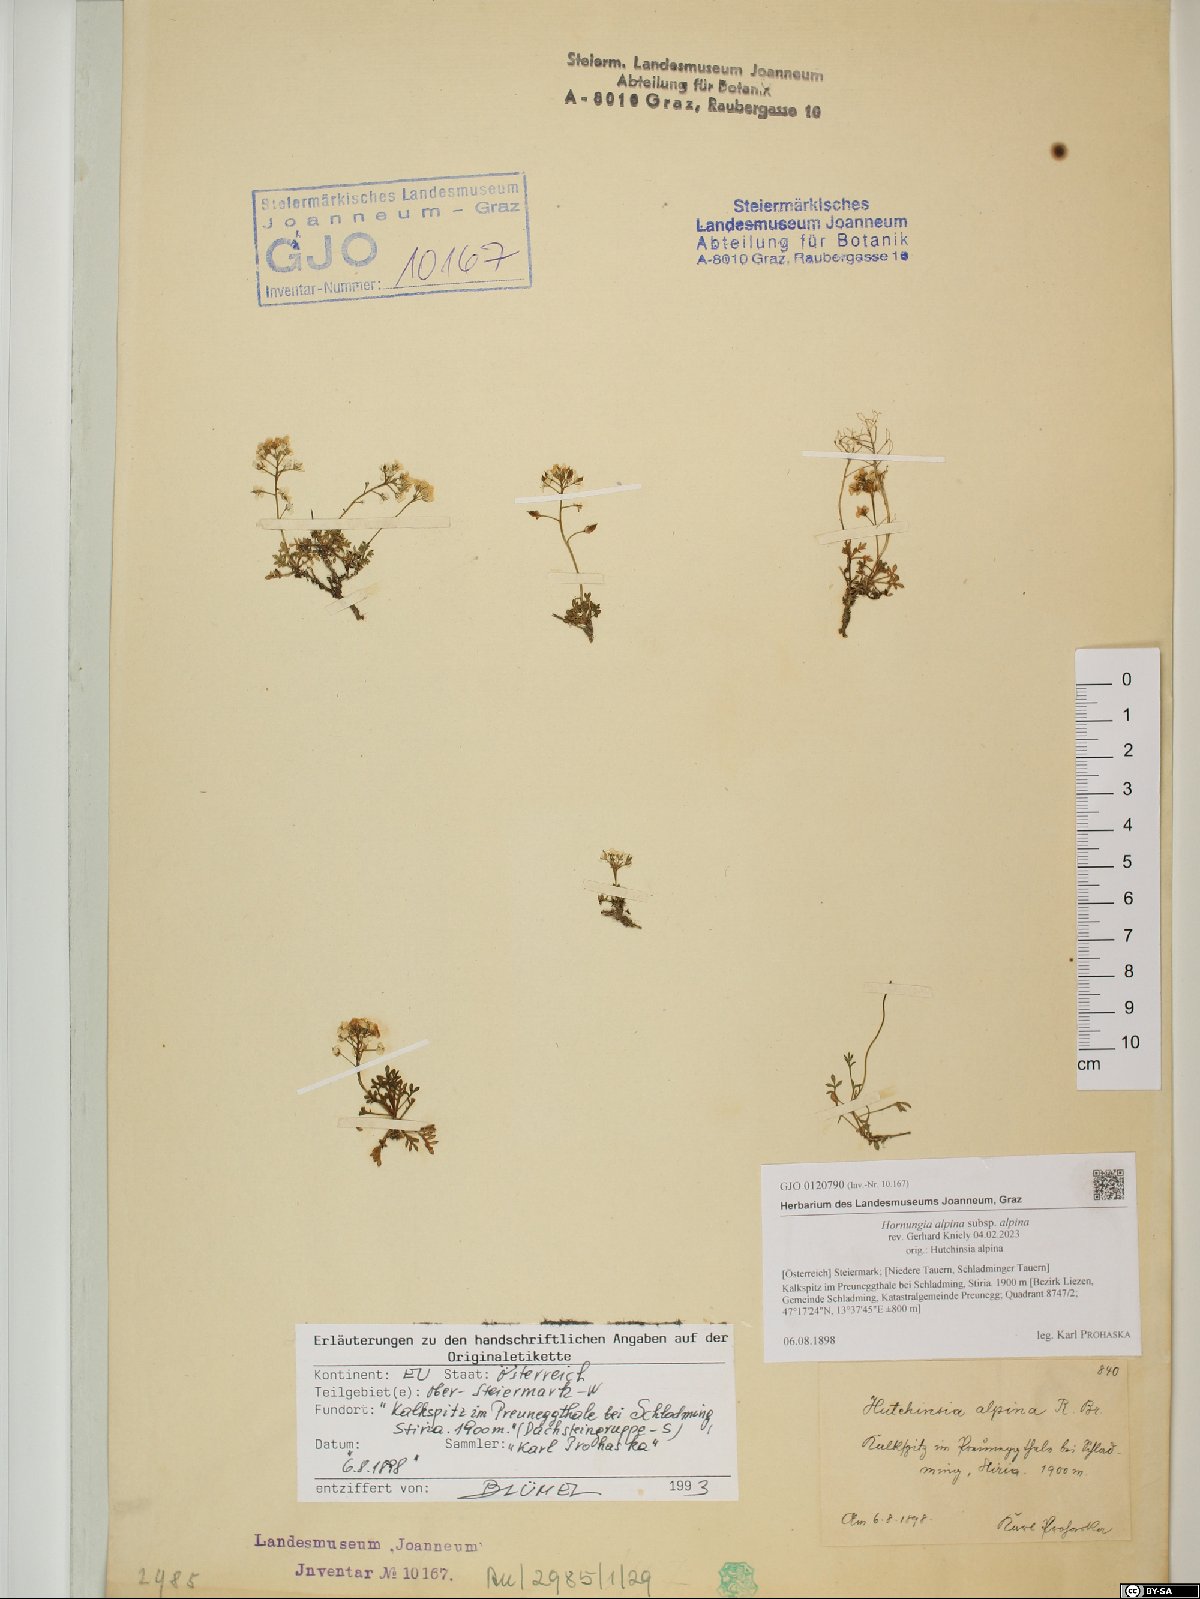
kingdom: Plantae
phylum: Tracheophyta
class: Magnoliopsida
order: Brassicales
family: Brassicaceae
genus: Hornungia
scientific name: Hornungia alpina
